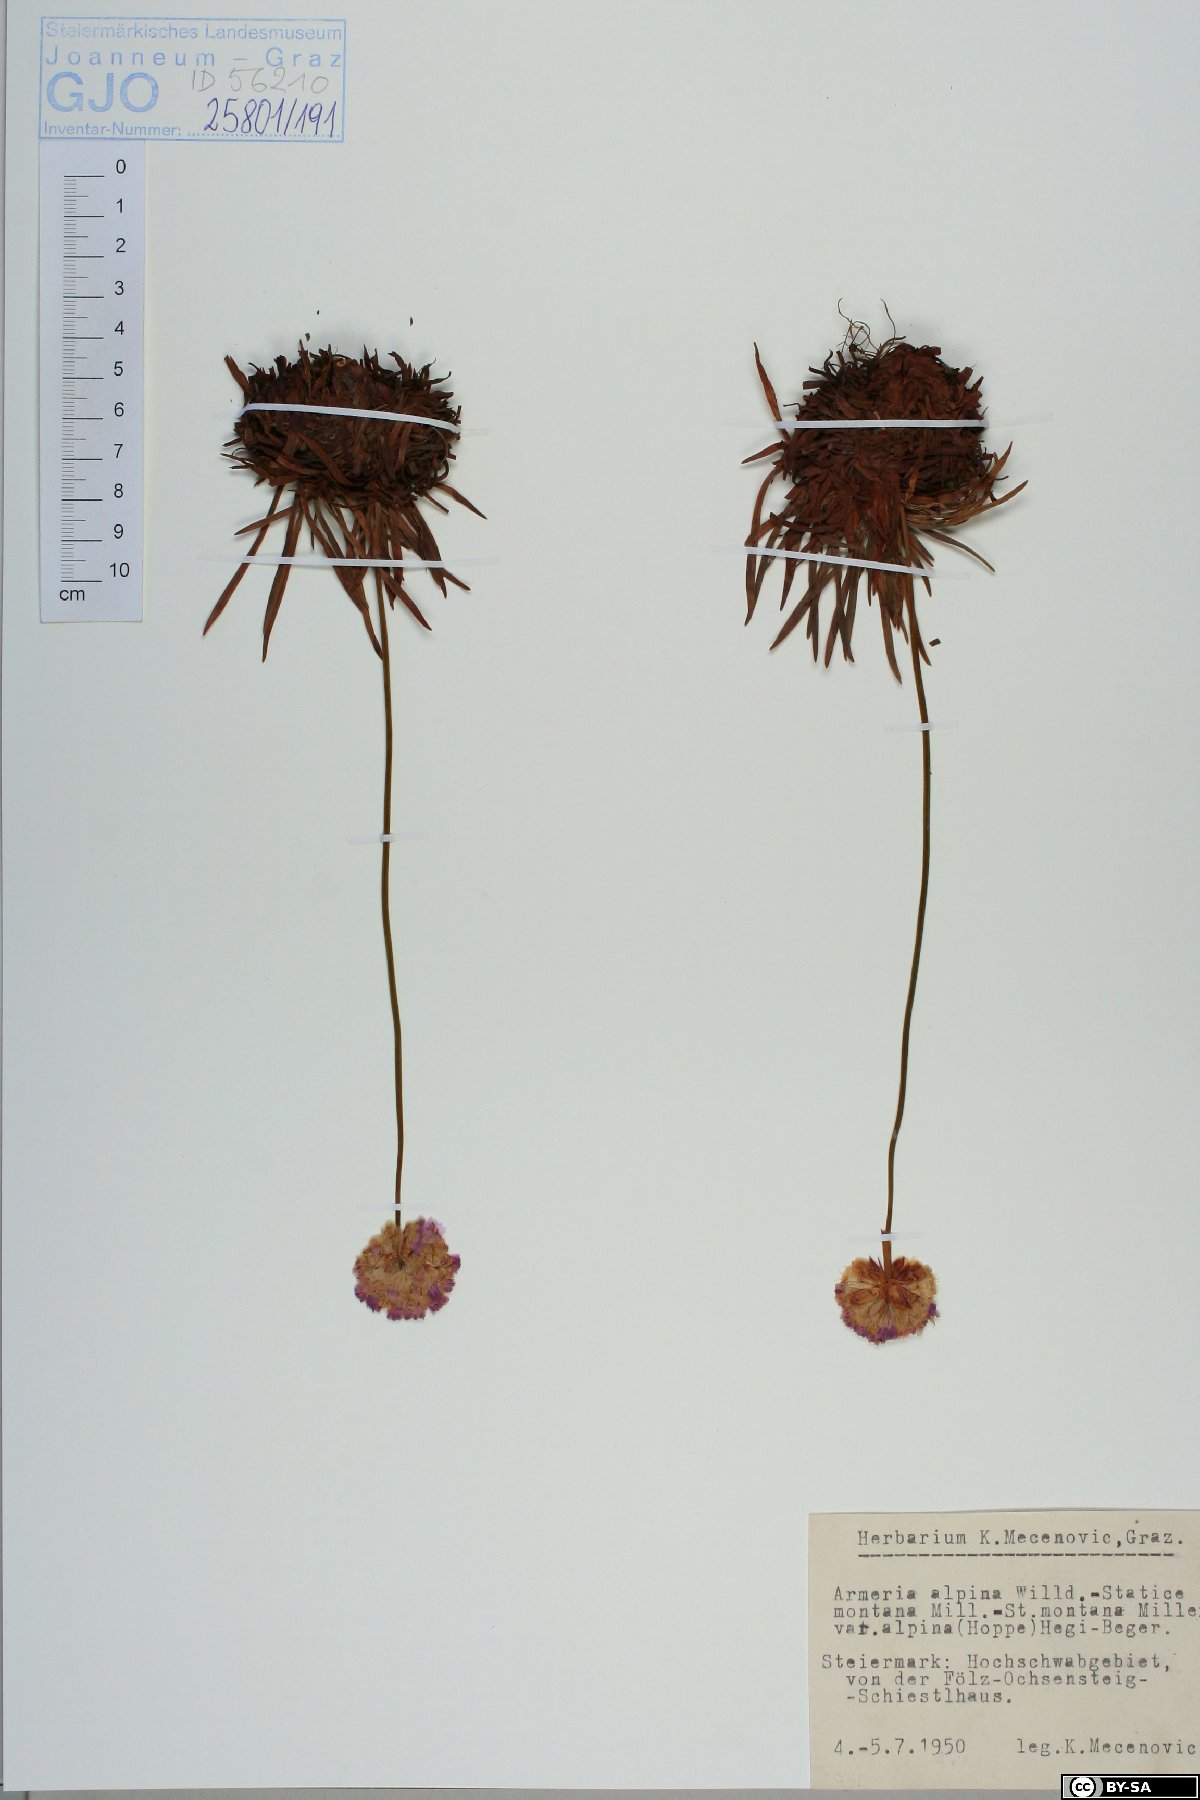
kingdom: Plantae
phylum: Tracheophyta
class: Magnoliopsida
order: Caryophyllales
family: Plumbaginaceae
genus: Armeria
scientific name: Armeria alpina
